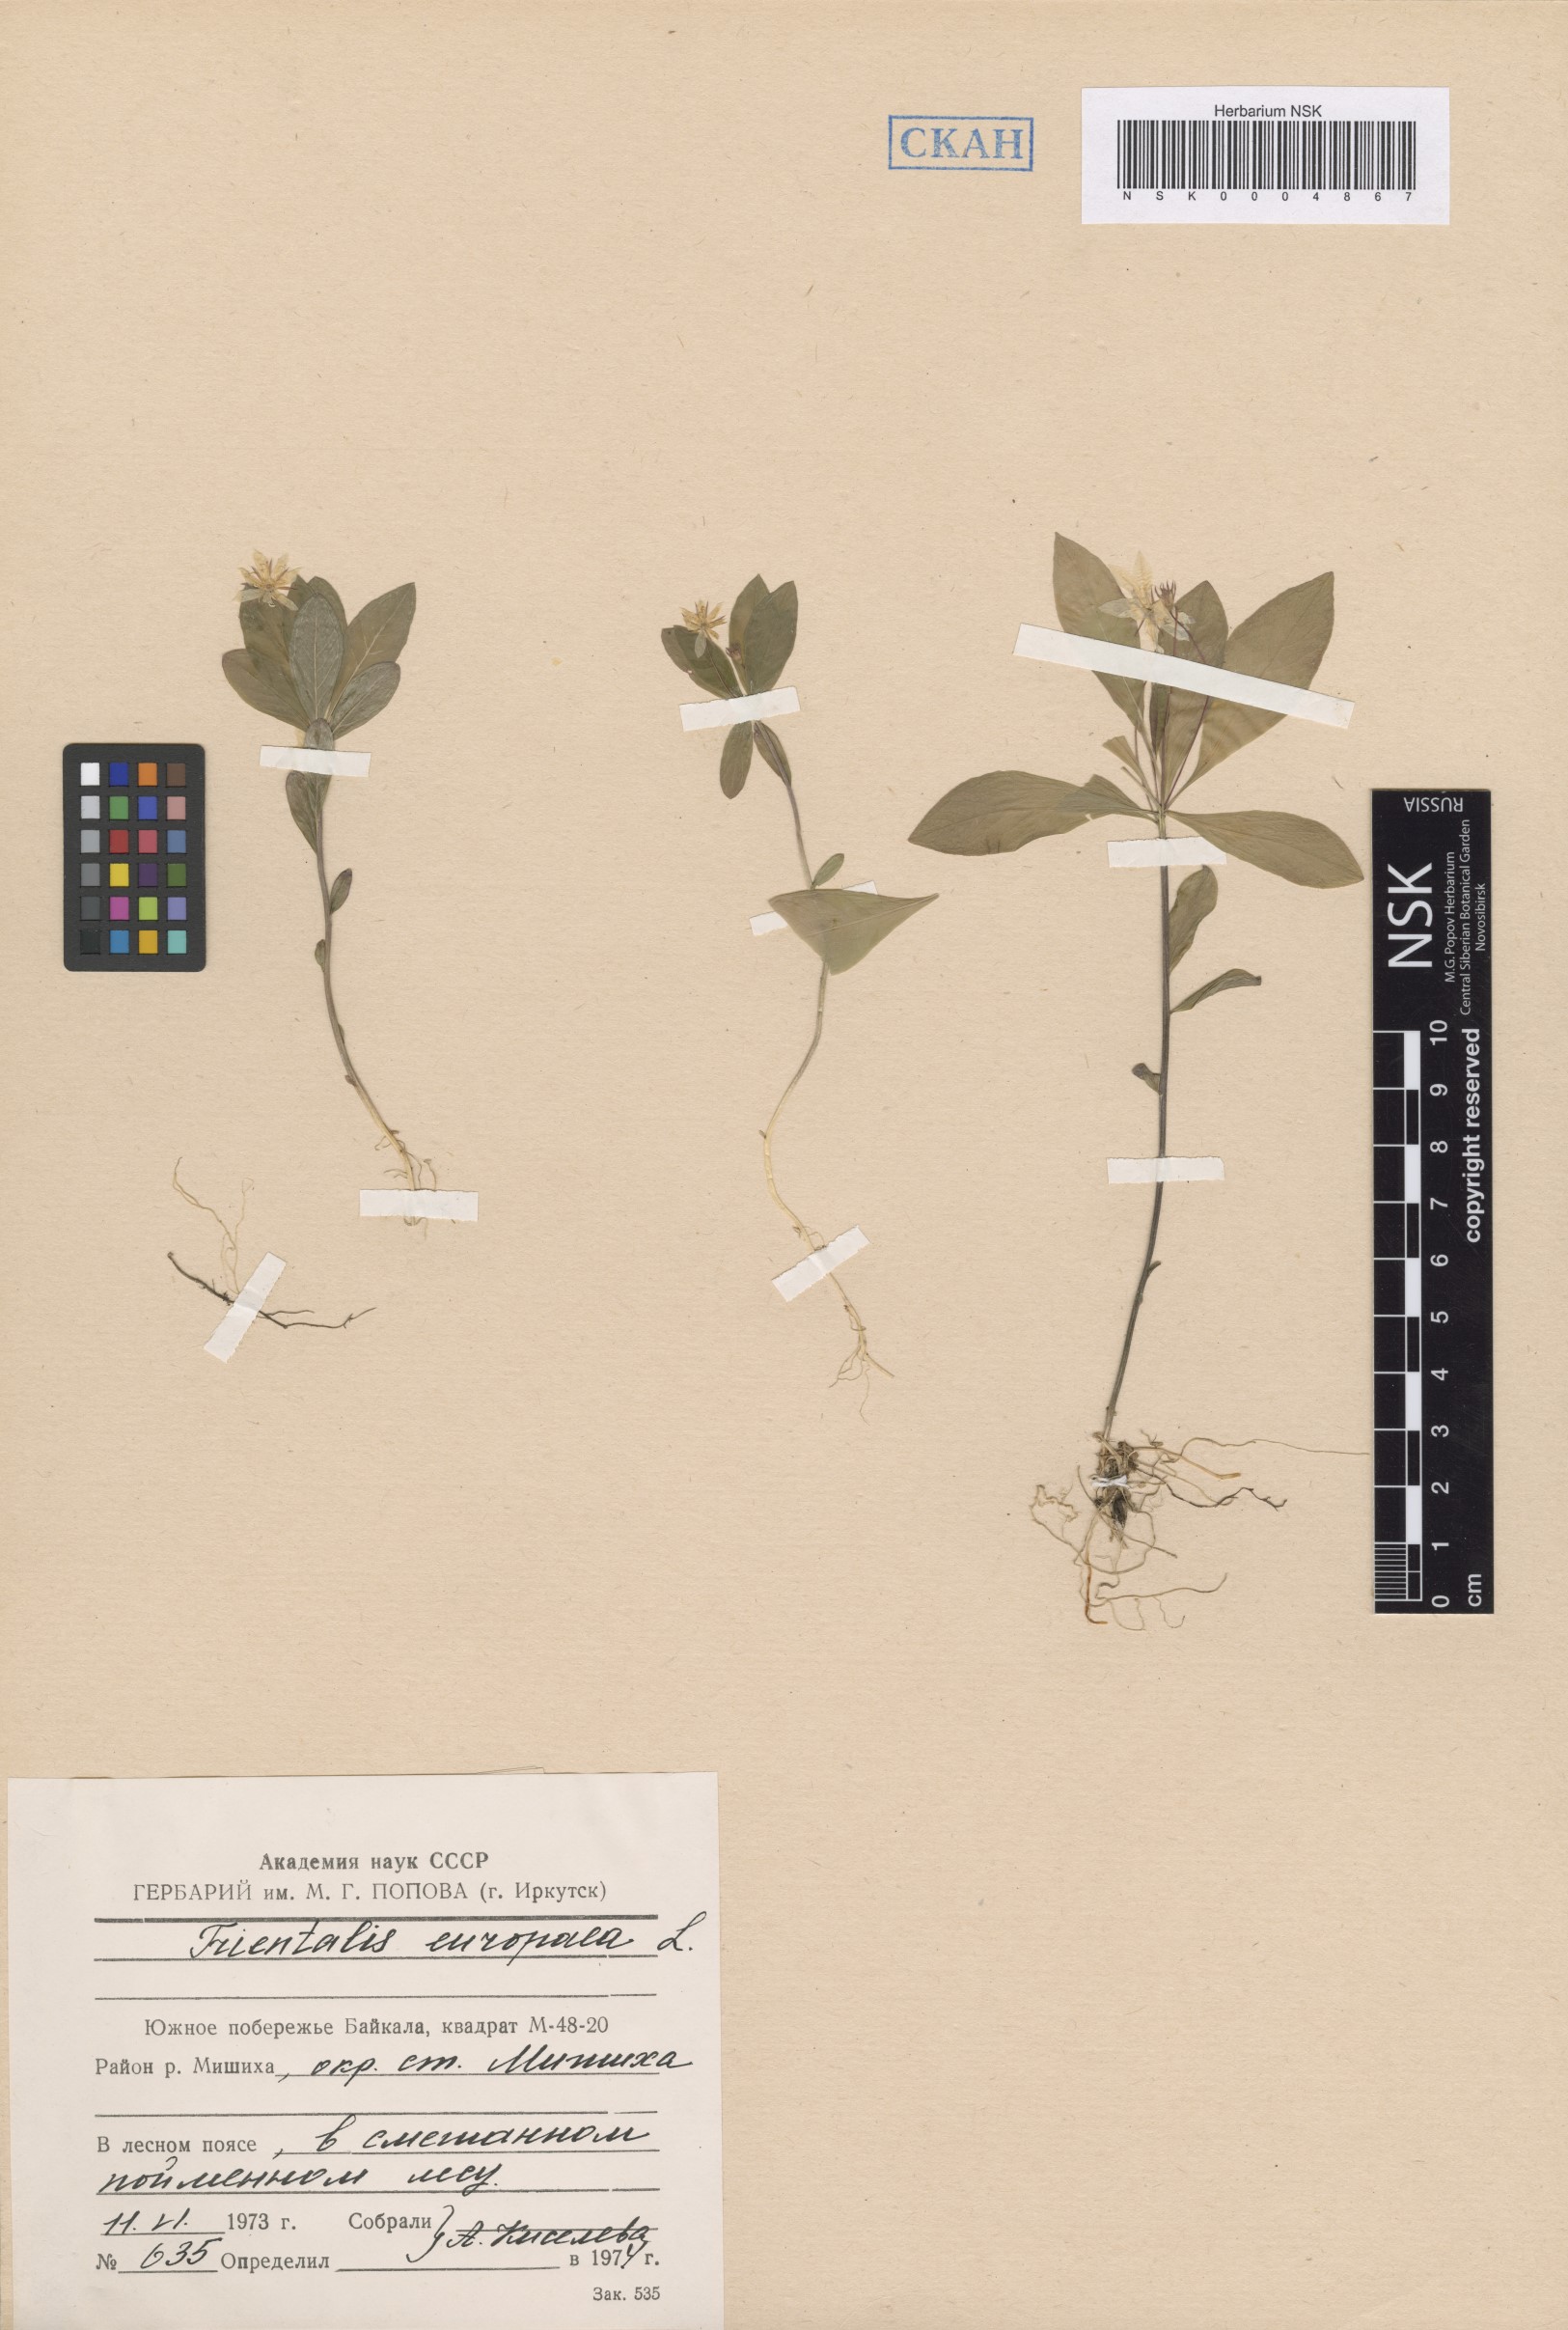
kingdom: Plantae
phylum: Tracheophyta
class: Magnoliopsida
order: Ericales
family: Primulaceae
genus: Lysimachia
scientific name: Lysimachia europaea
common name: Arctic starflower
